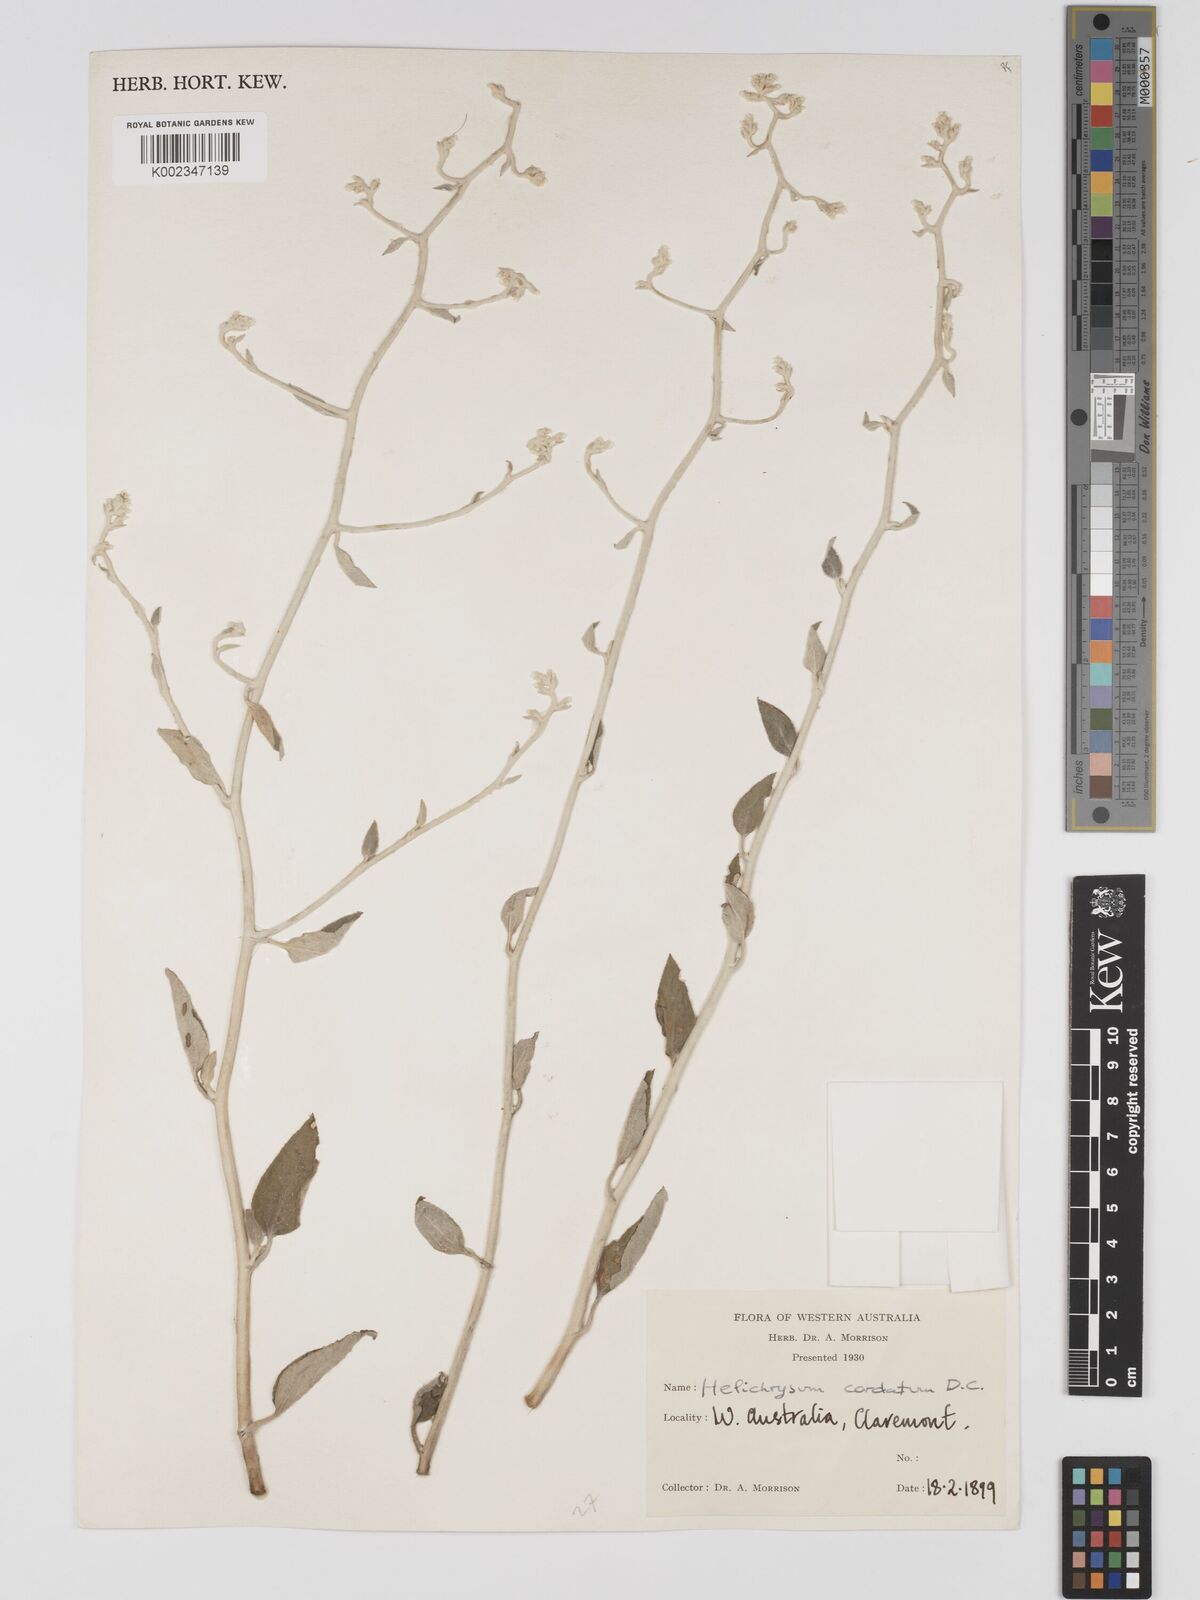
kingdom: Plantae
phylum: Tracheophyta
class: Magnoliopsida
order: Asterales
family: Asteraceae
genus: Ozothamnus
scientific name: Ozothamnus
